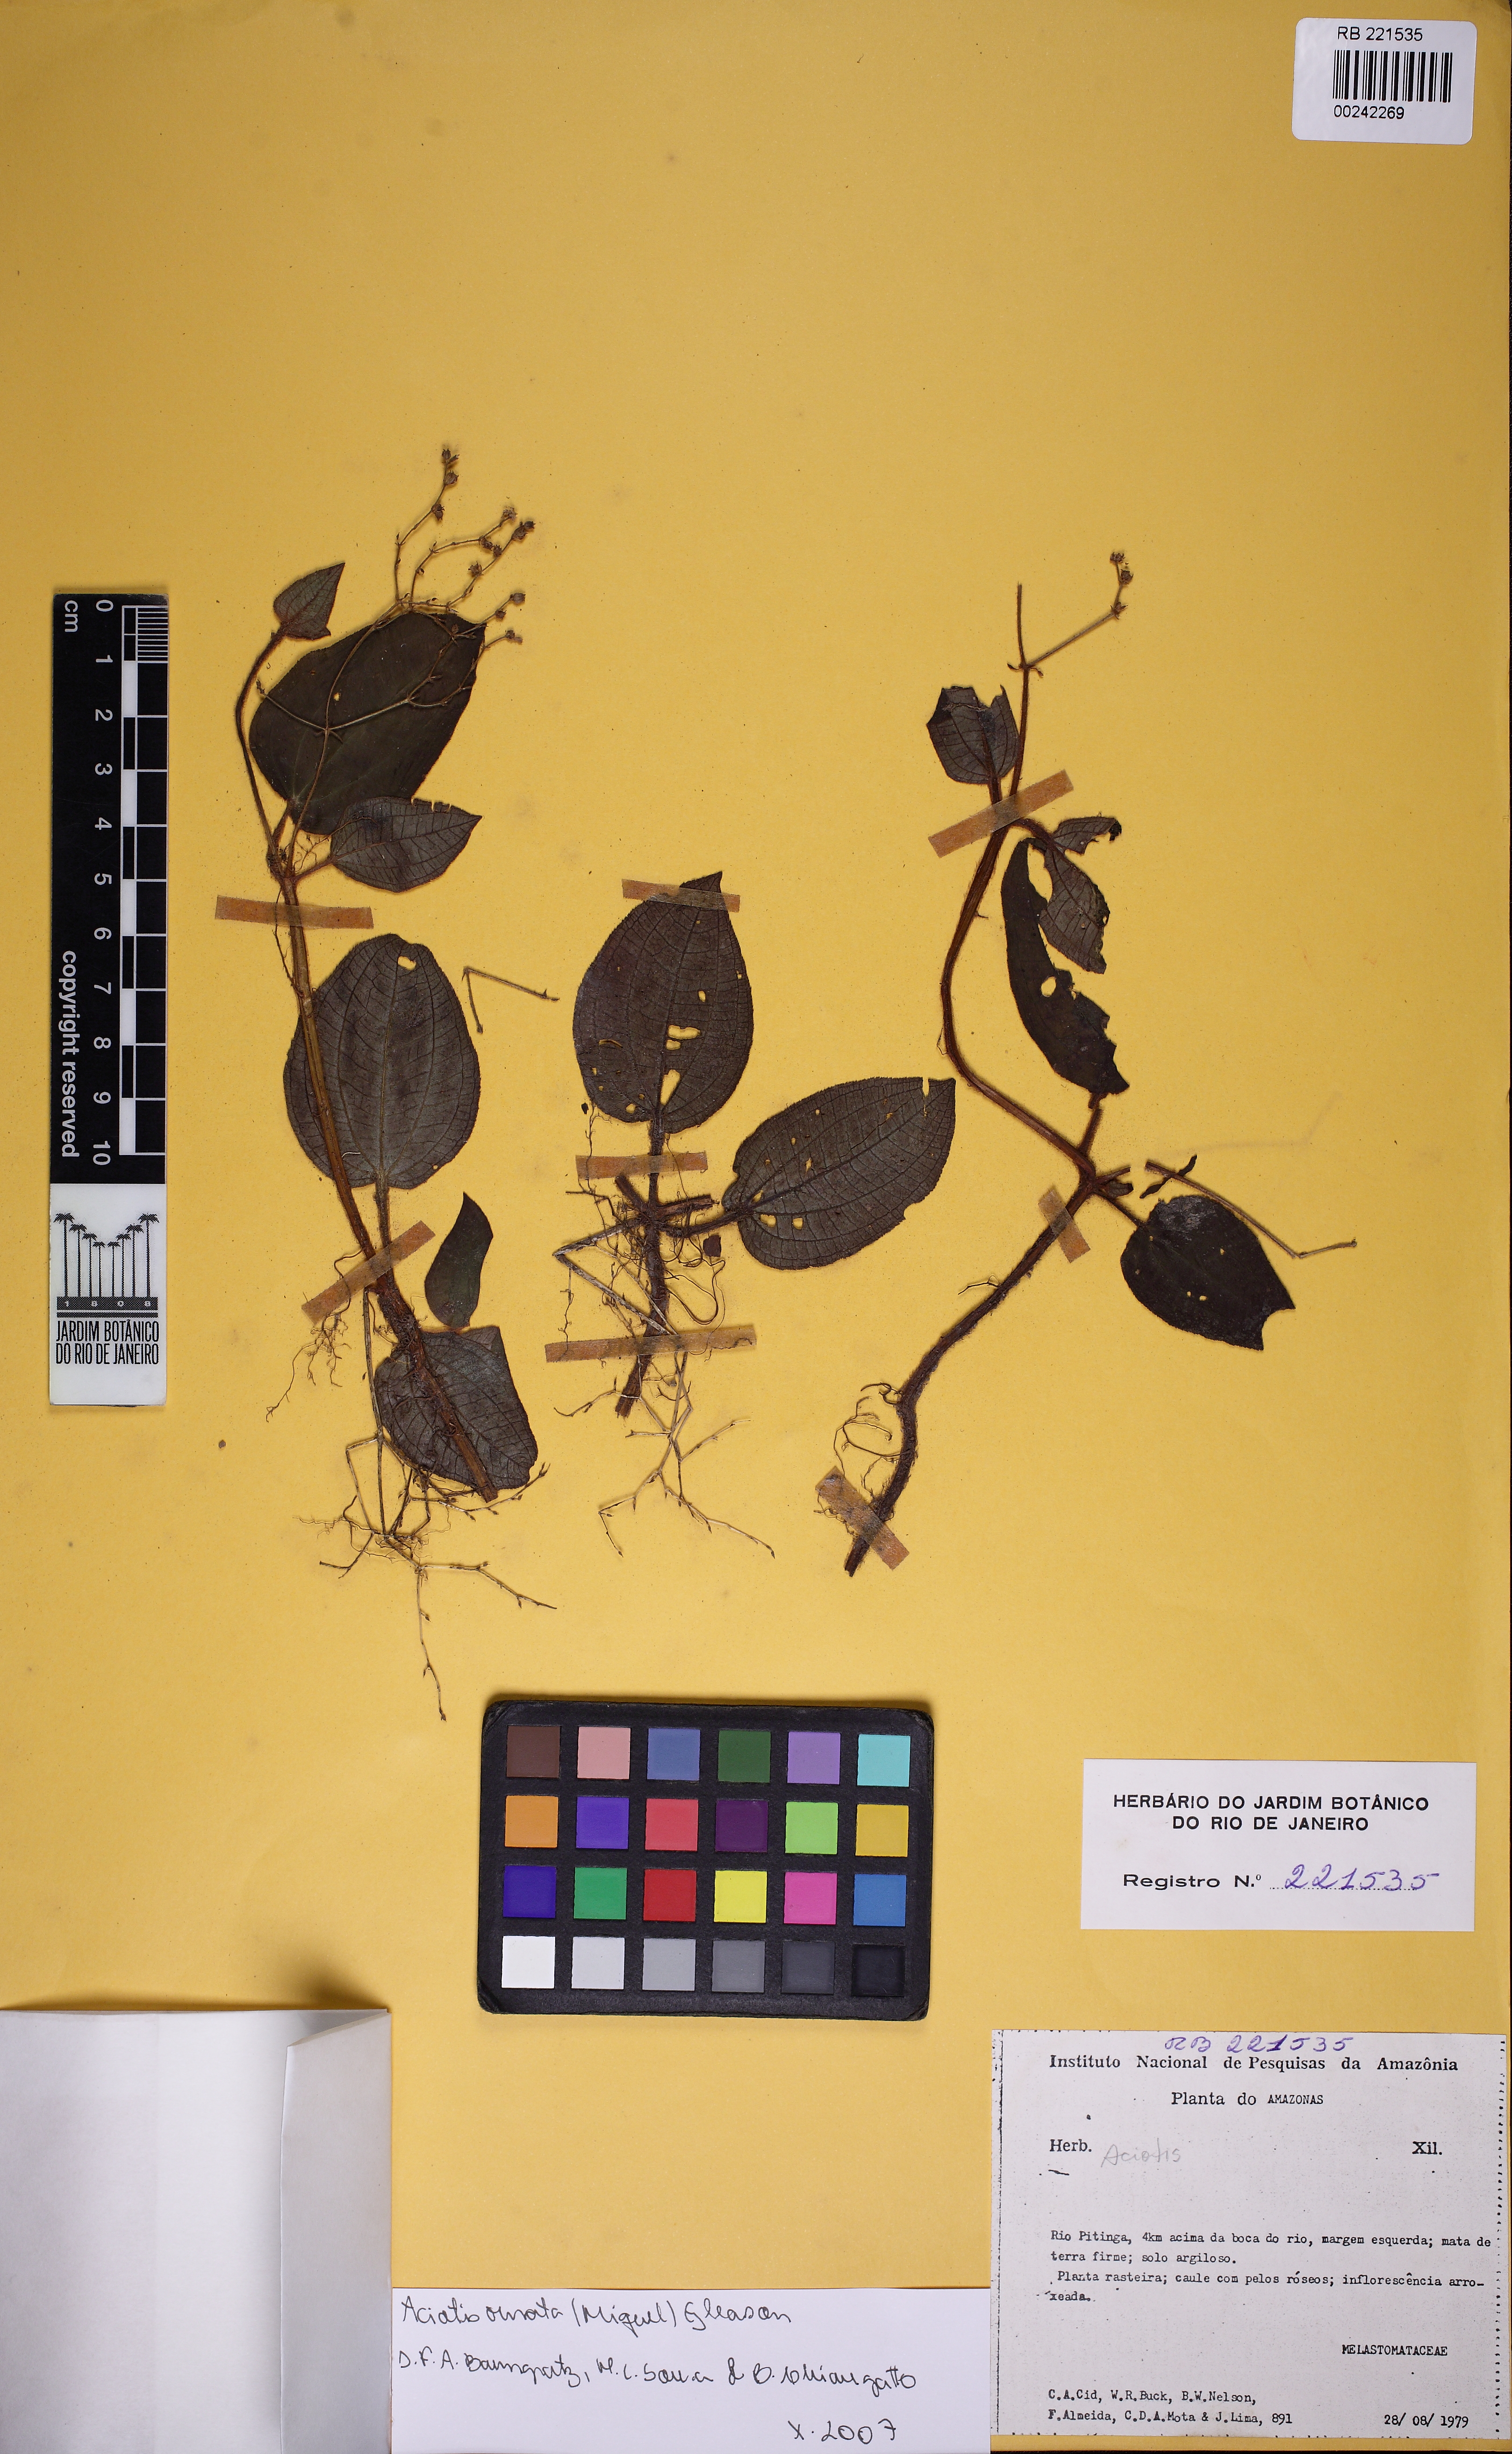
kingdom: Plantae
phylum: Tracheophyta
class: Magnoliopsida
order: Myrtales
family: Melastomataceae
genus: Aciotis
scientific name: Aciotis ornata
